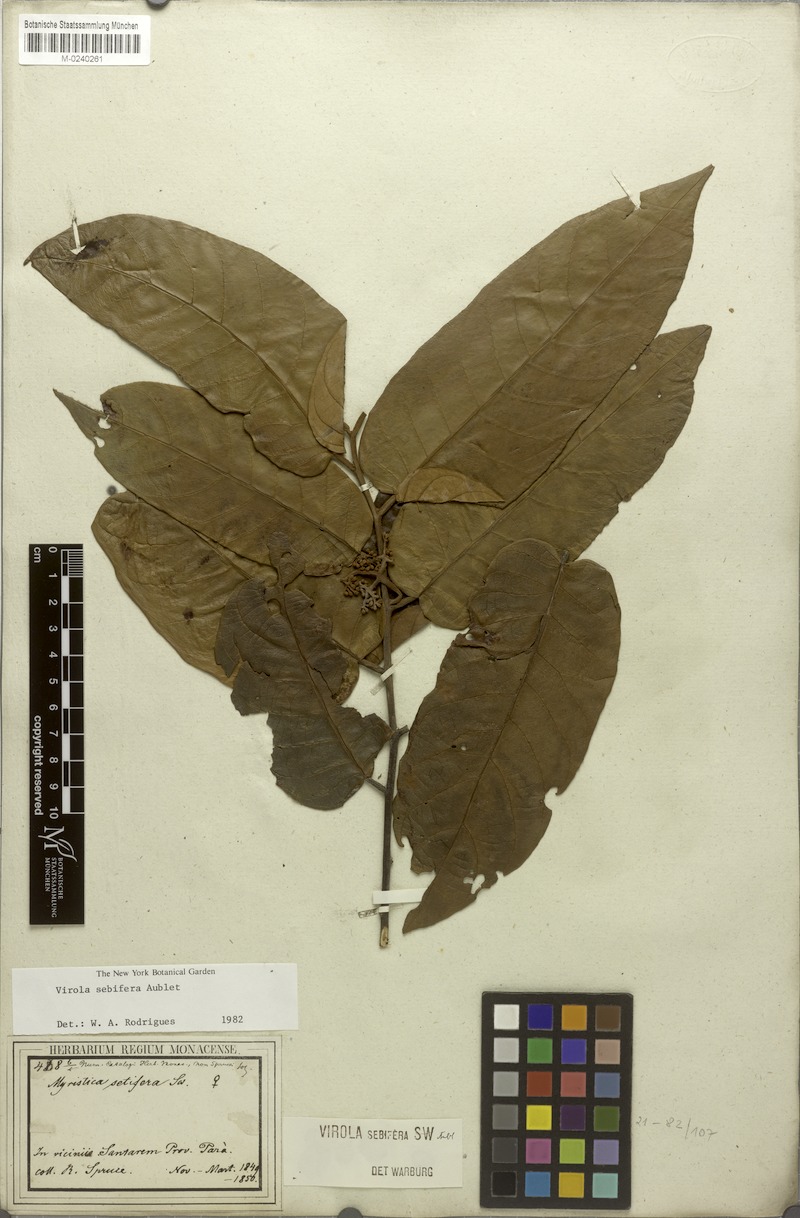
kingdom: Plantae
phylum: Tracheophyta
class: Magnoliopsida
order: Magnoliales
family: Myristicaceae
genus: Virola
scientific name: Virola sebifera
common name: Red ucuuba
